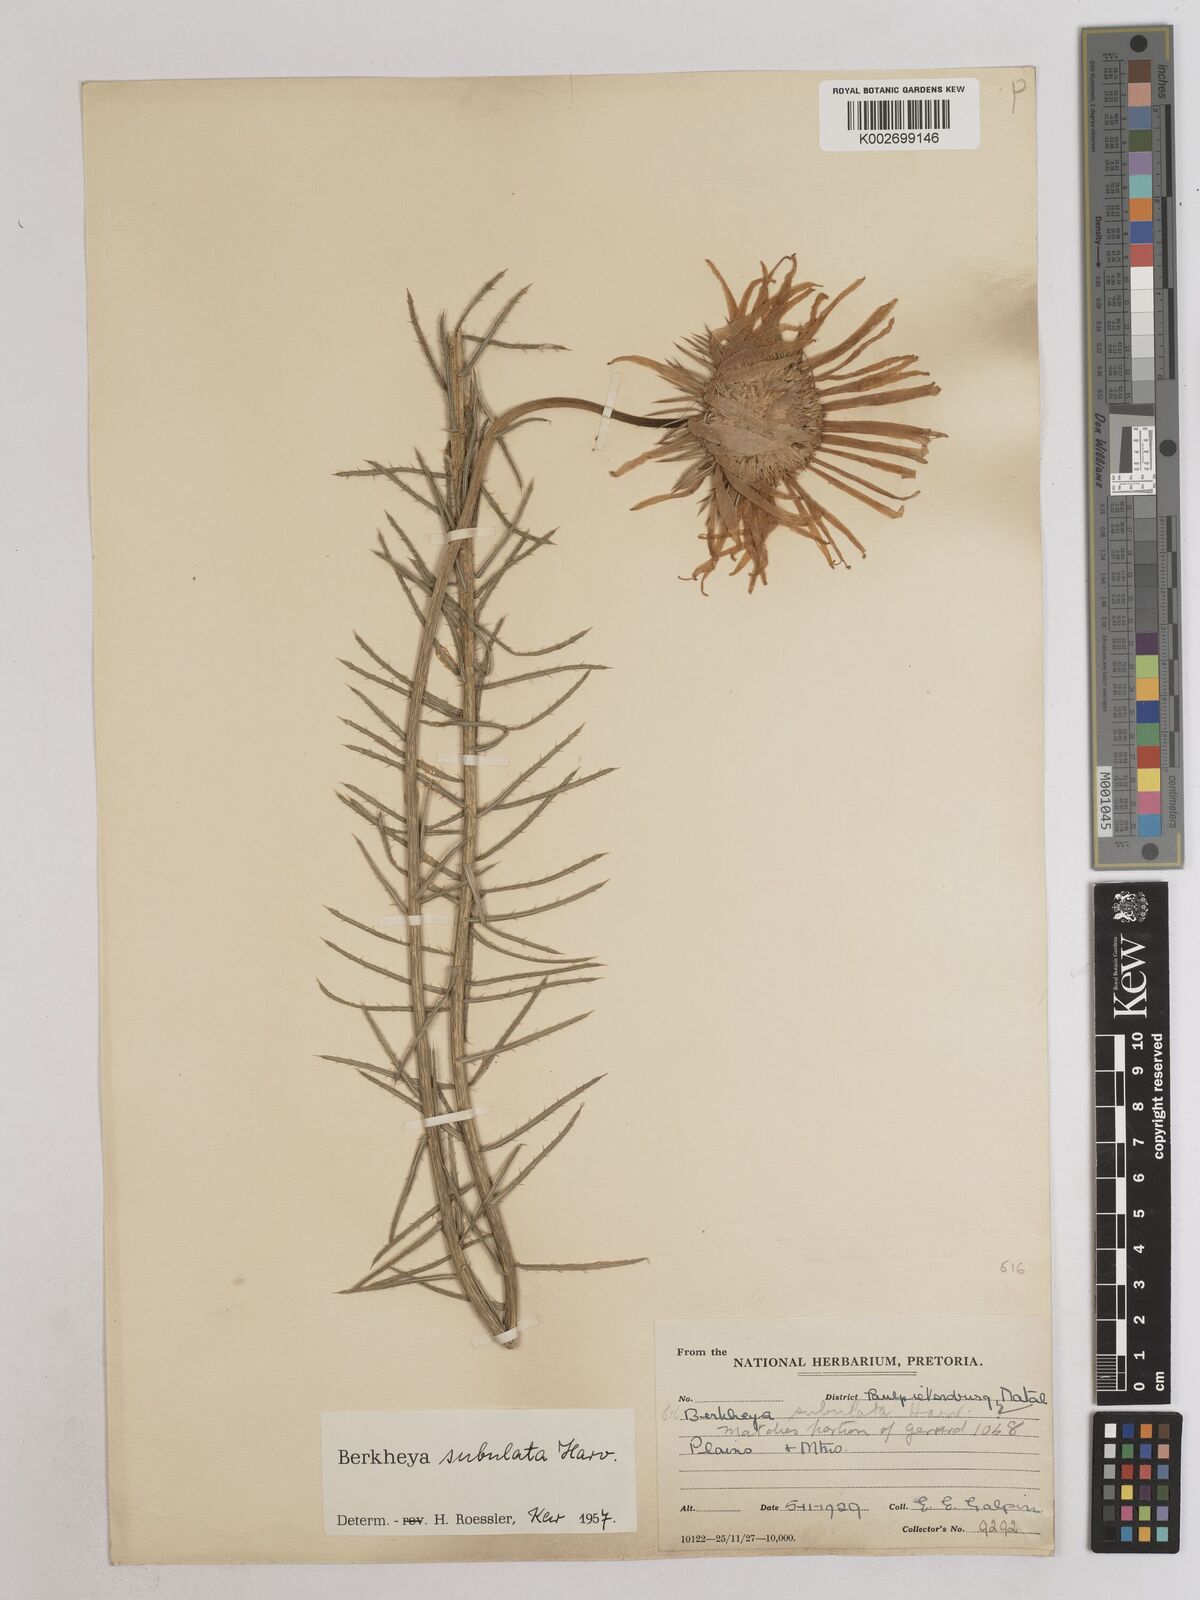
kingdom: Plantae
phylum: Tracheophyta
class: Magnoliopsida
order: Asterales
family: Asteraceae
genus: Berkheya
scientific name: Berkheya subulata
